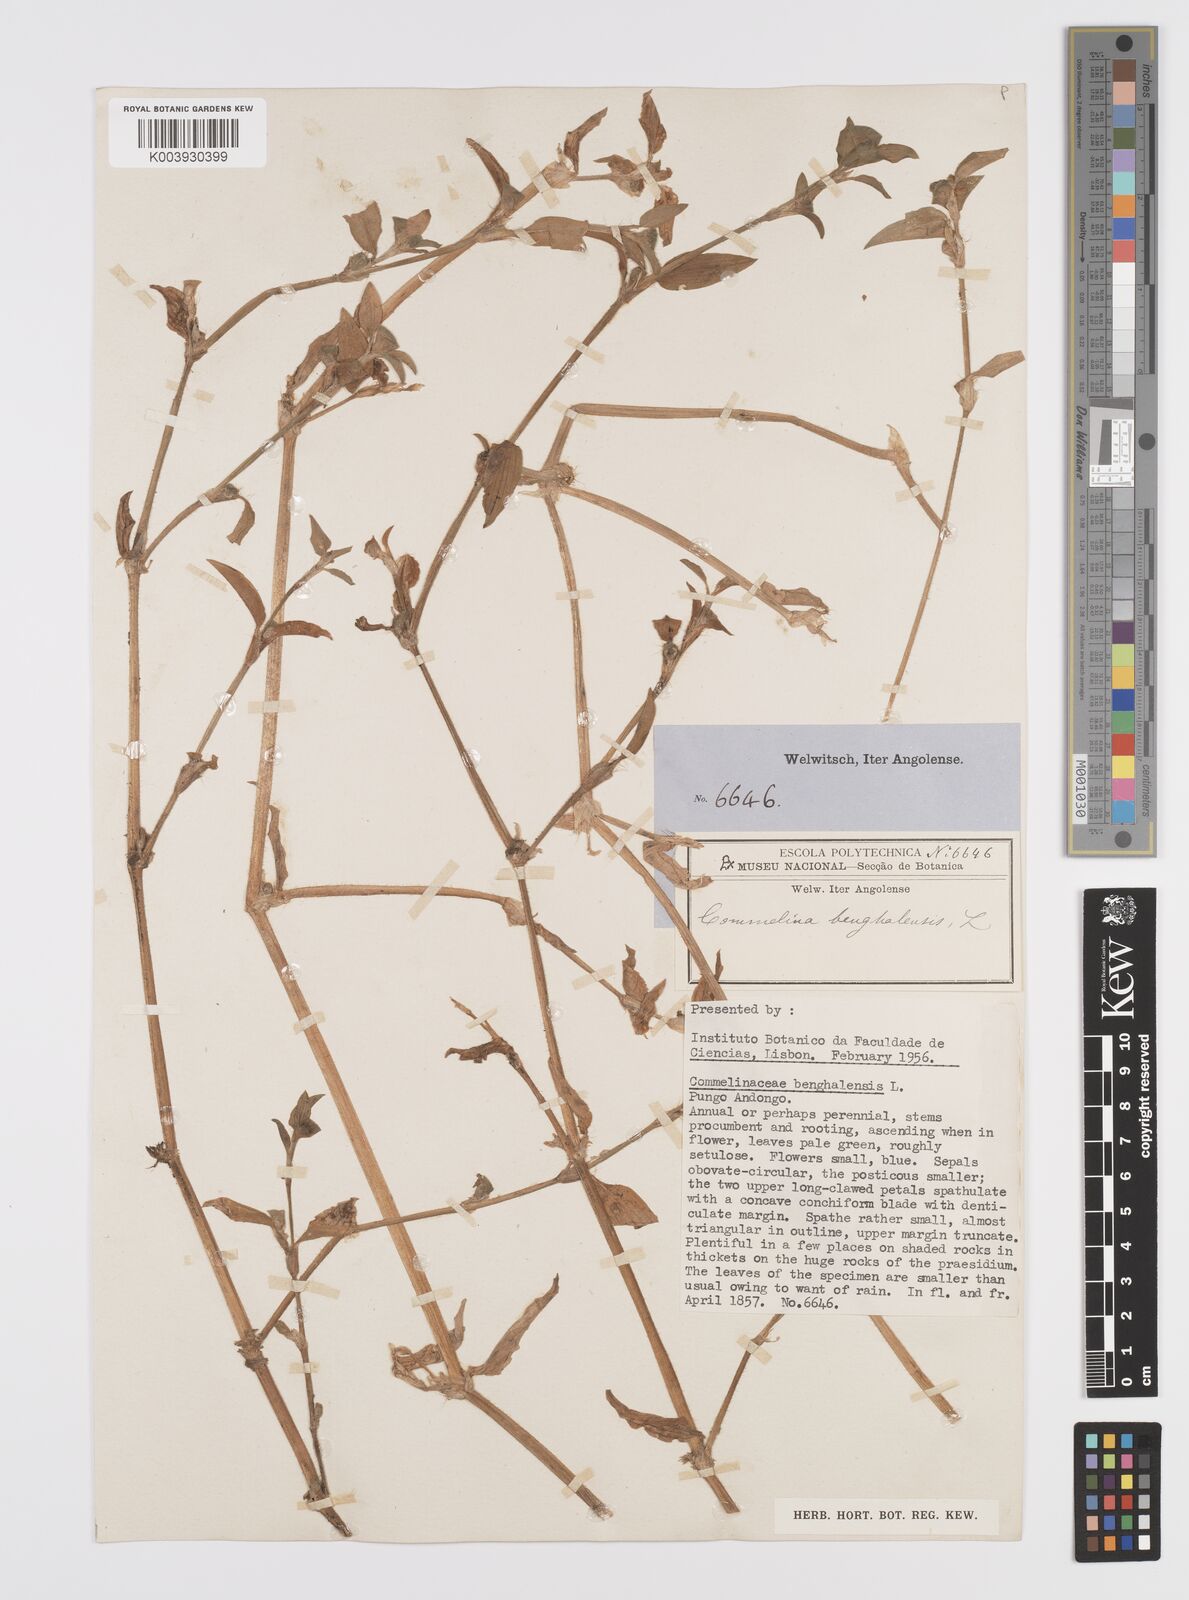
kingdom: Plantae
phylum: Tracheophyta
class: Liliopsida
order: Commelinales
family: Commelinaceae
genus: Commelina
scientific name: Commelina benghalensis
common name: Jio
